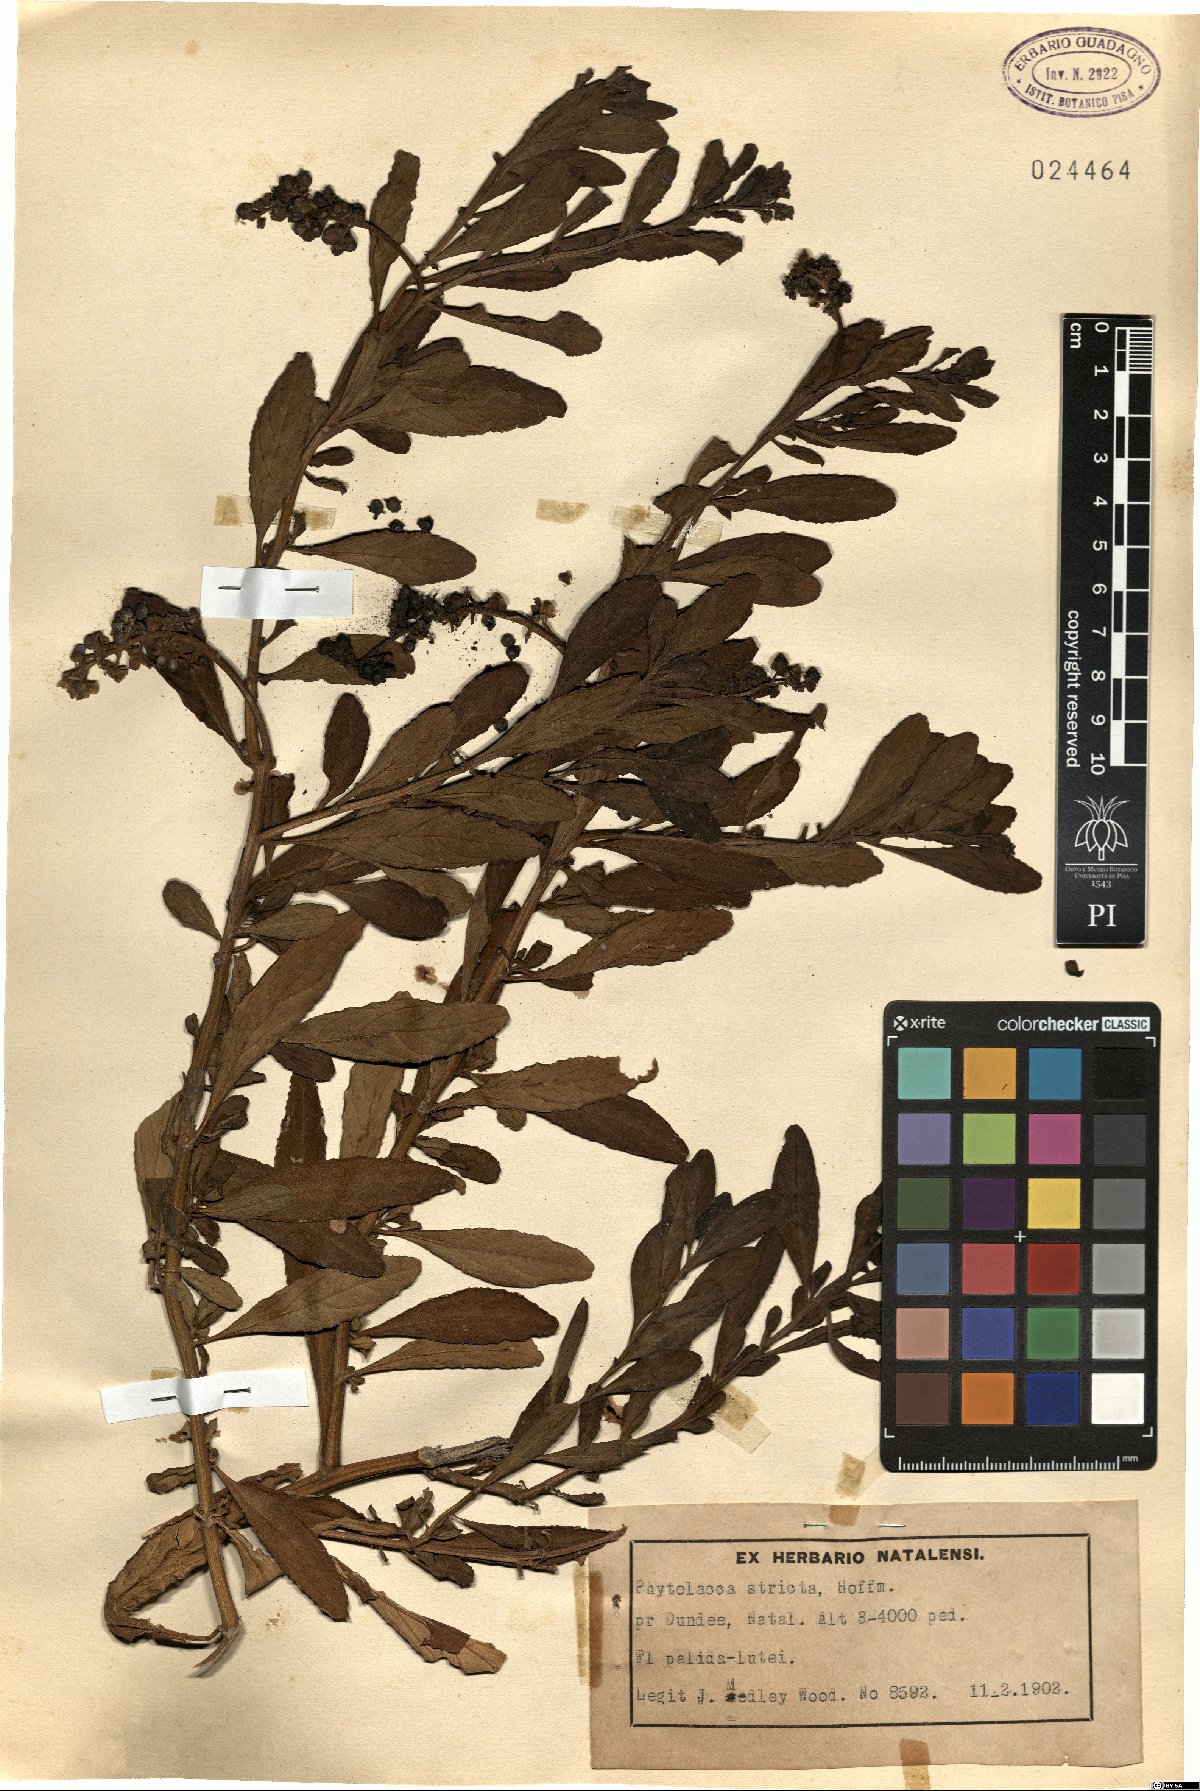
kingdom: Plantae
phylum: Tracheophyta
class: Magnoliopsida
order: Caryophyllales
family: Phytolaccaceae
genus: Phytolacca
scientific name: Phytolacca heptandra
